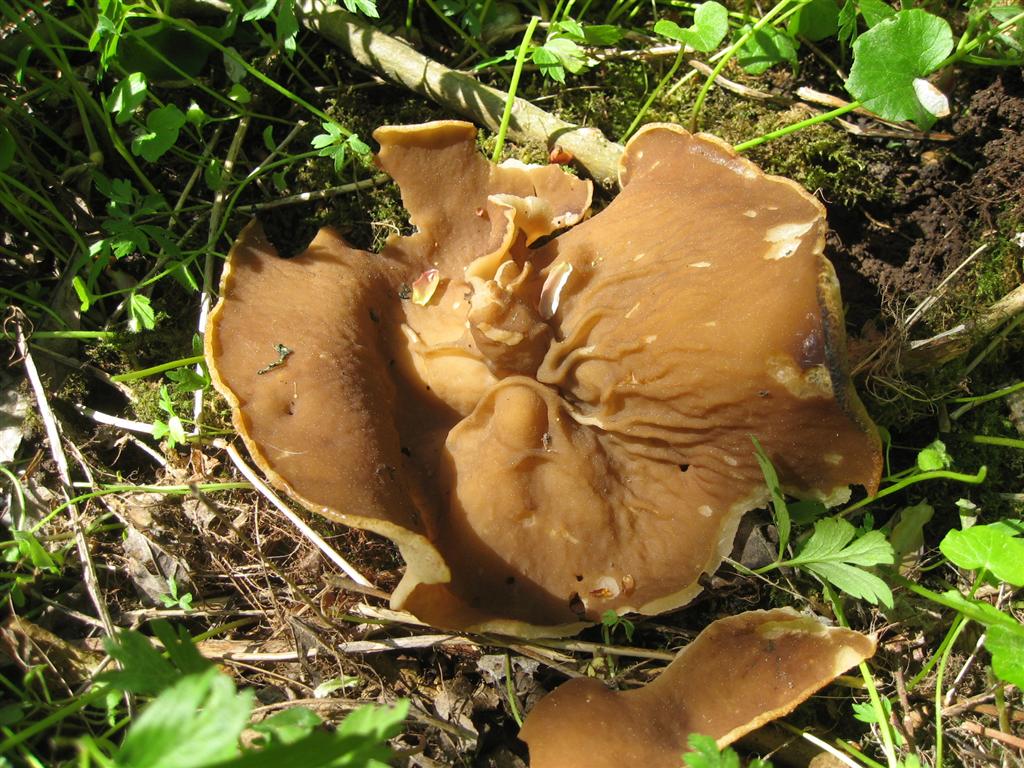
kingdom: Fungi
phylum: Ascomycota
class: Pezizomycetes
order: Pezizales
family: Morchellaceae
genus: Disciotis
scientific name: Disciotis venosa
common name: klor-bægermorkel
